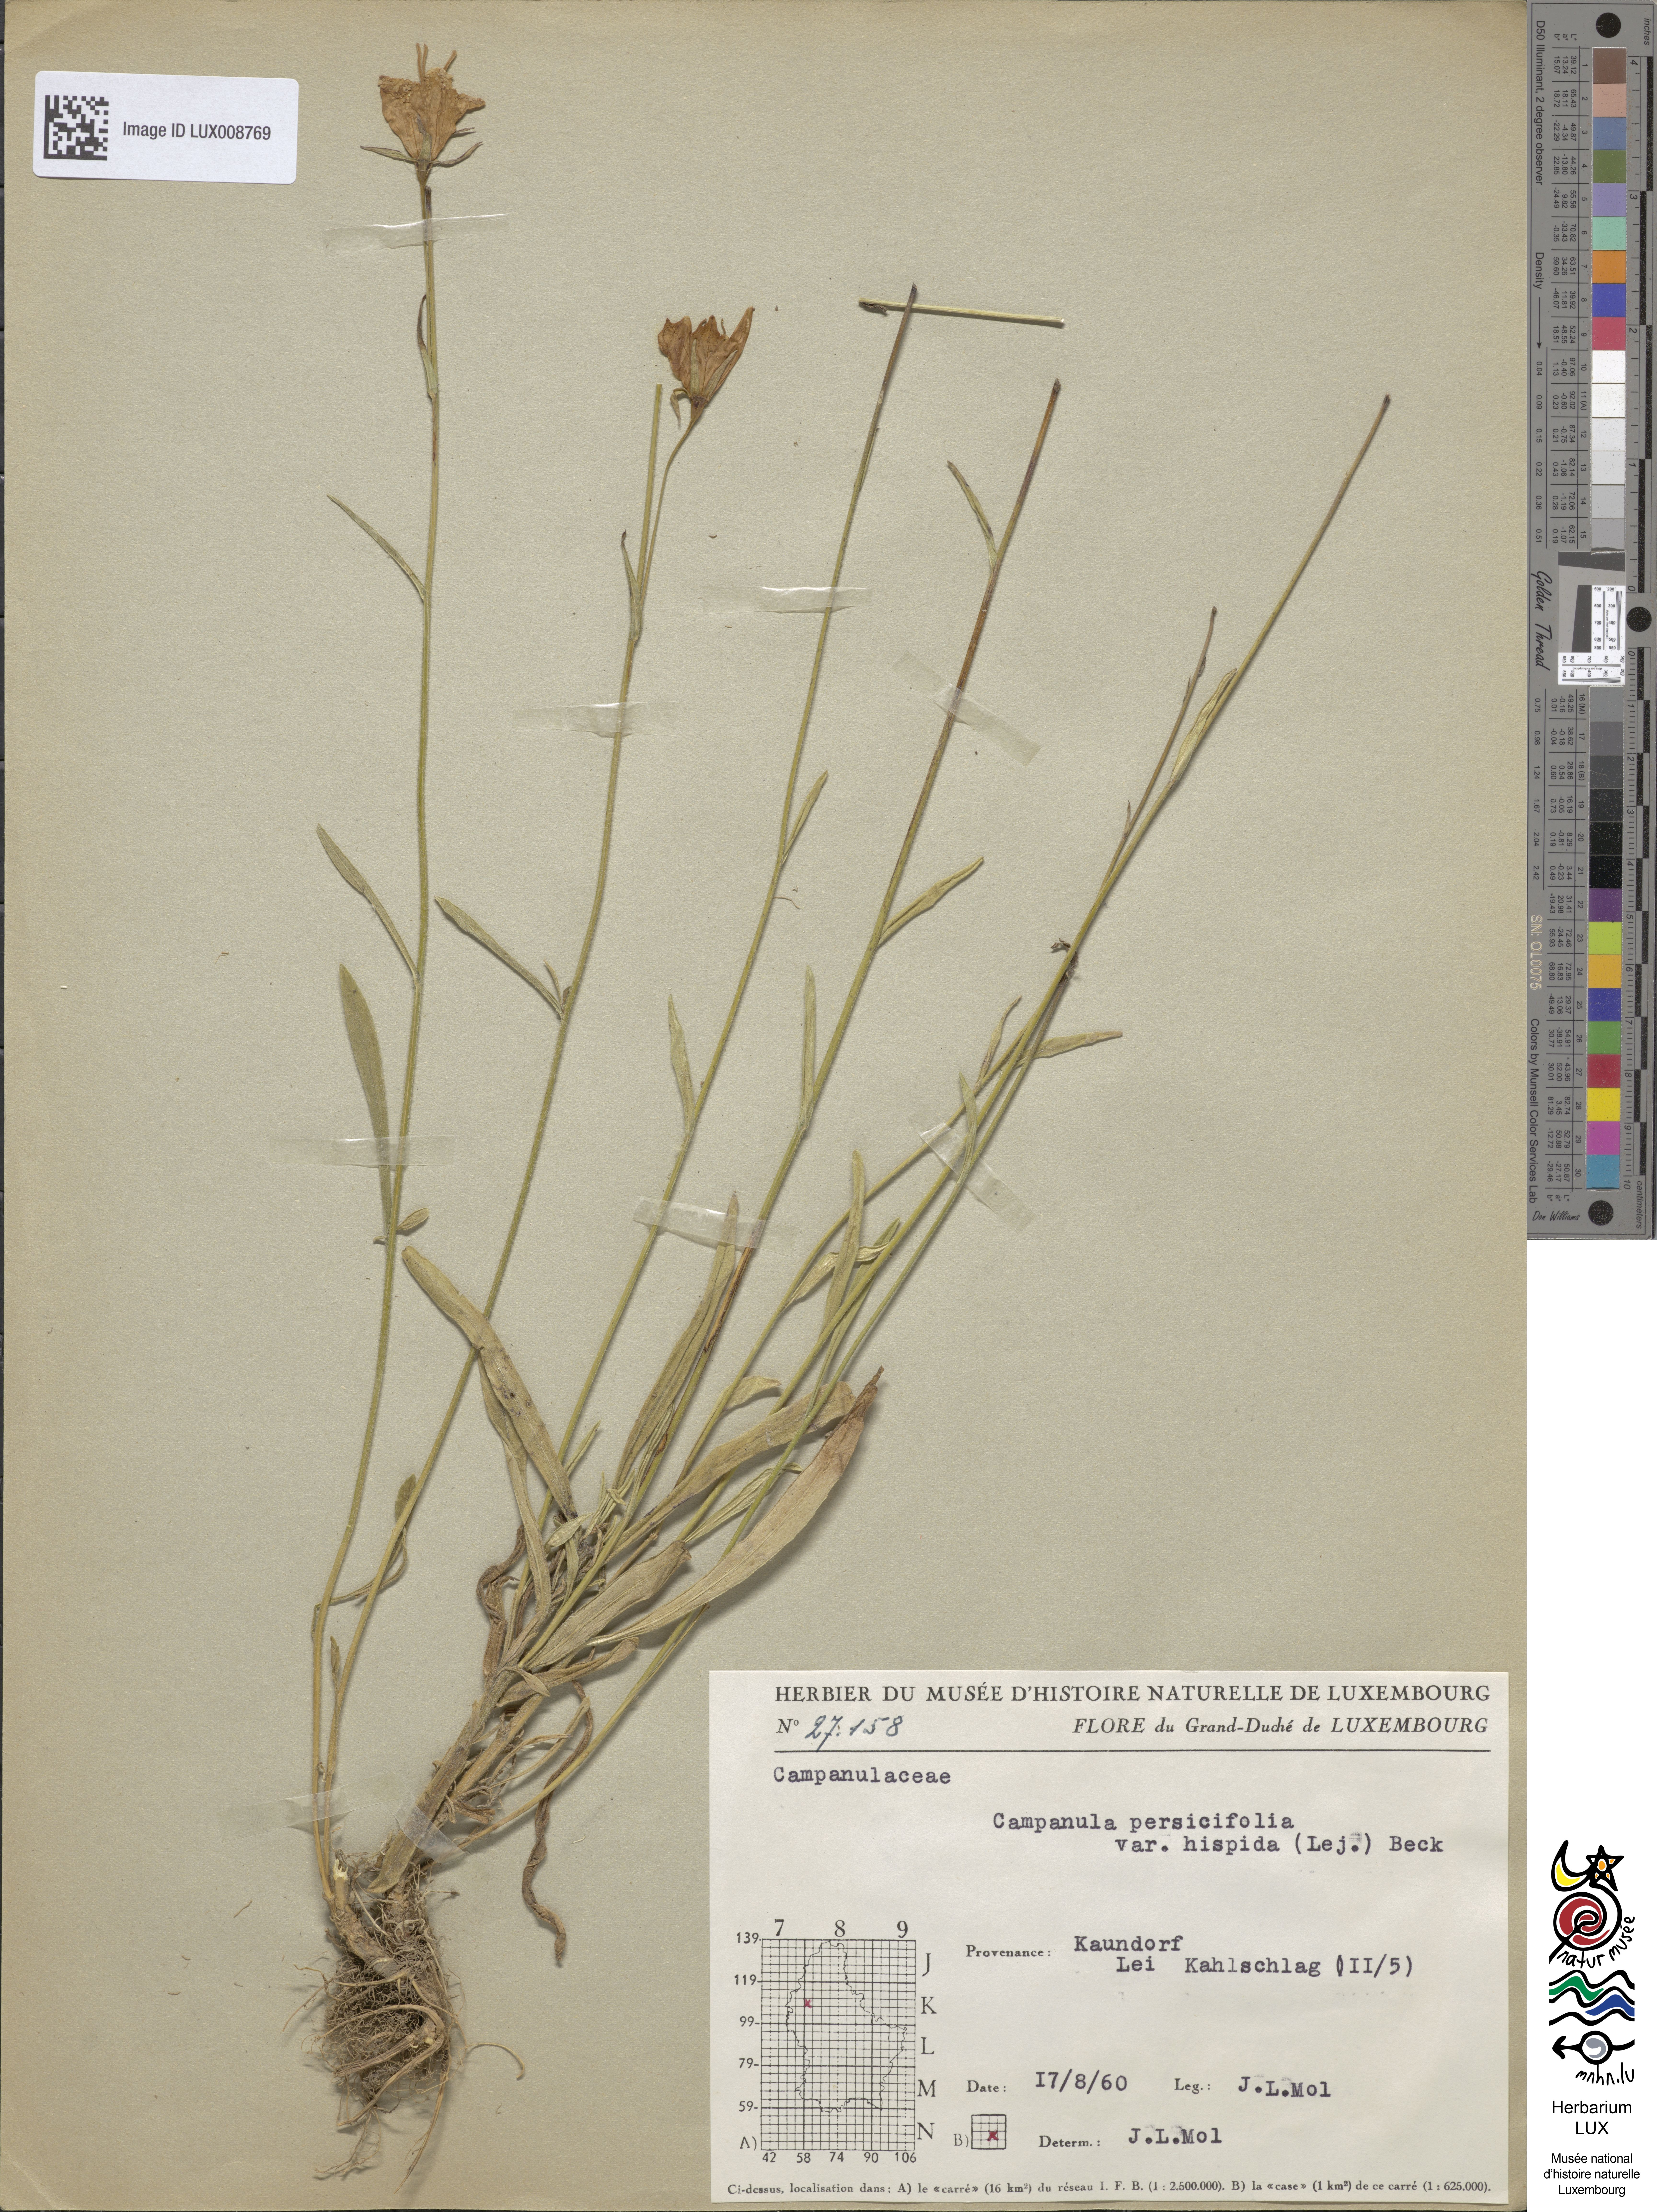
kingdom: Plantae
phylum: Tracheophyta
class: Magnoliopsida
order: Asterales
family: Campanulaceae
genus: Campanula
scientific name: Campanula persicifolia
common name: Peach-leaved bellflower
